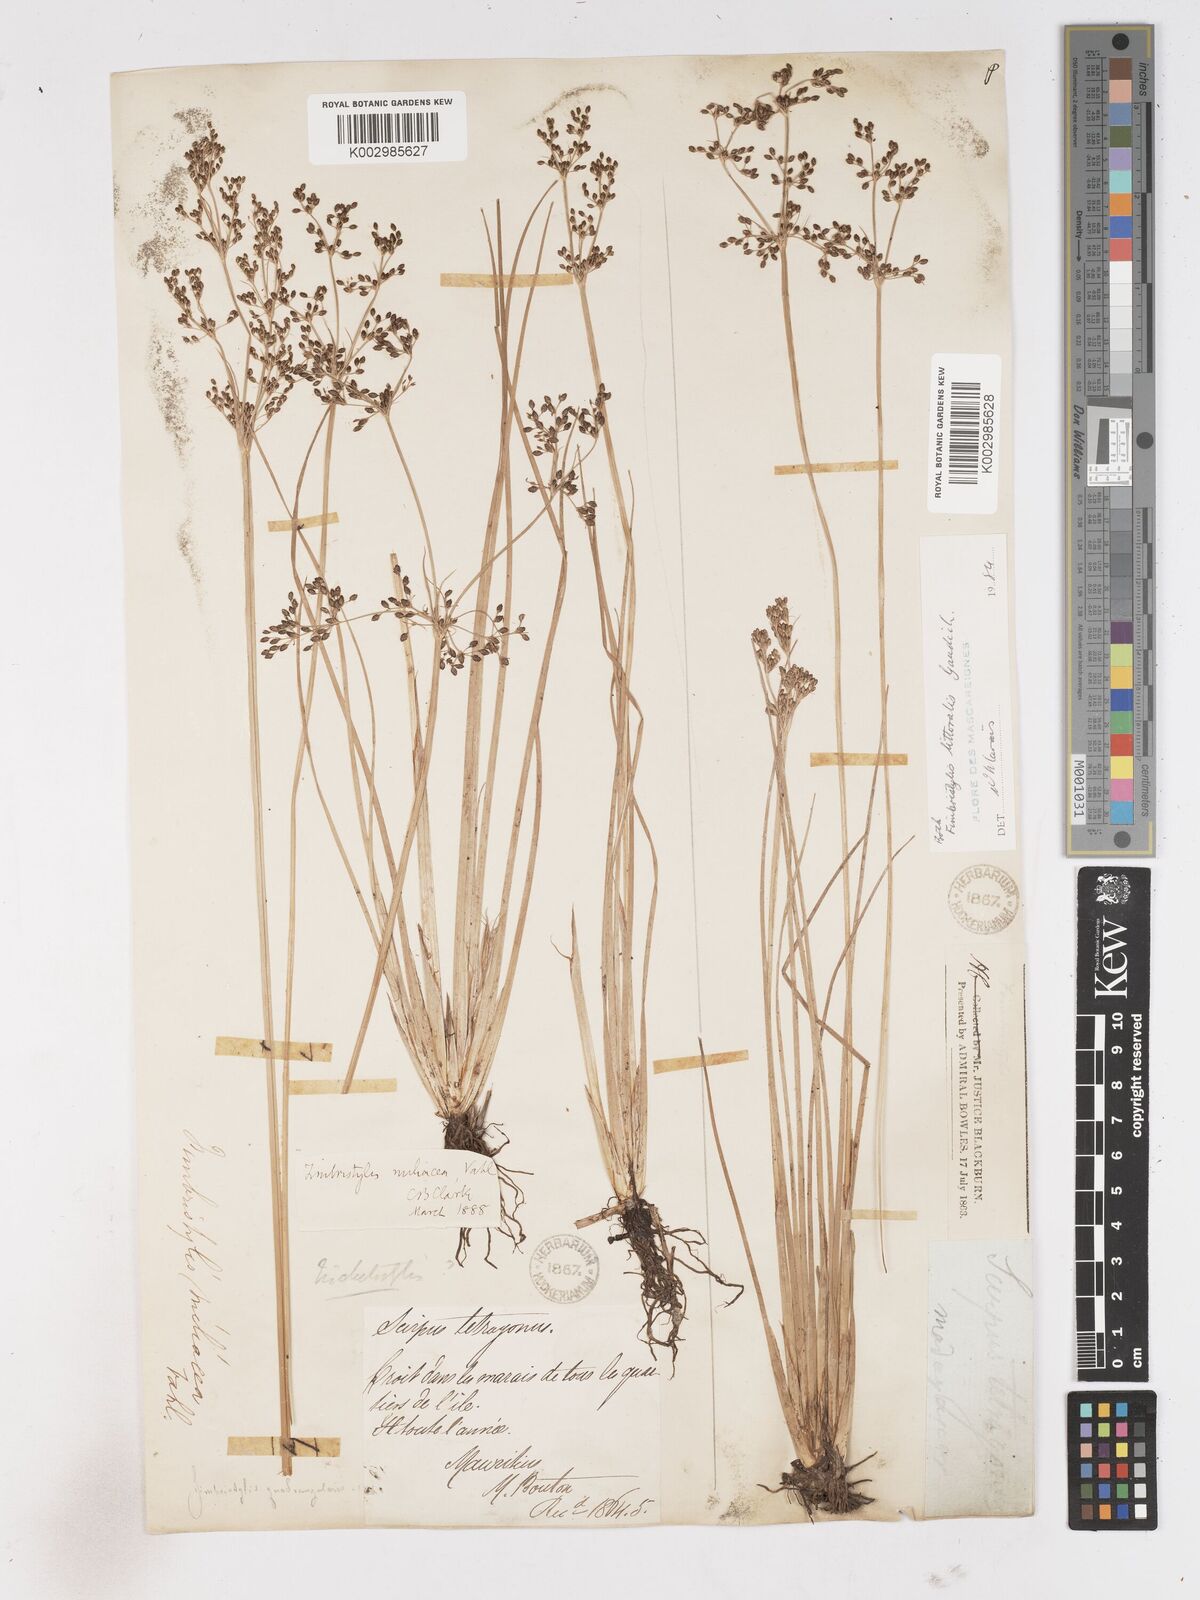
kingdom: Plantae
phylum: Tracheophyta
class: Liliopsida
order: Poales
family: Cyperaceae
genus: Fimbristylis
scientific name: Fimbristylis littoralis
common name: Fimbry
